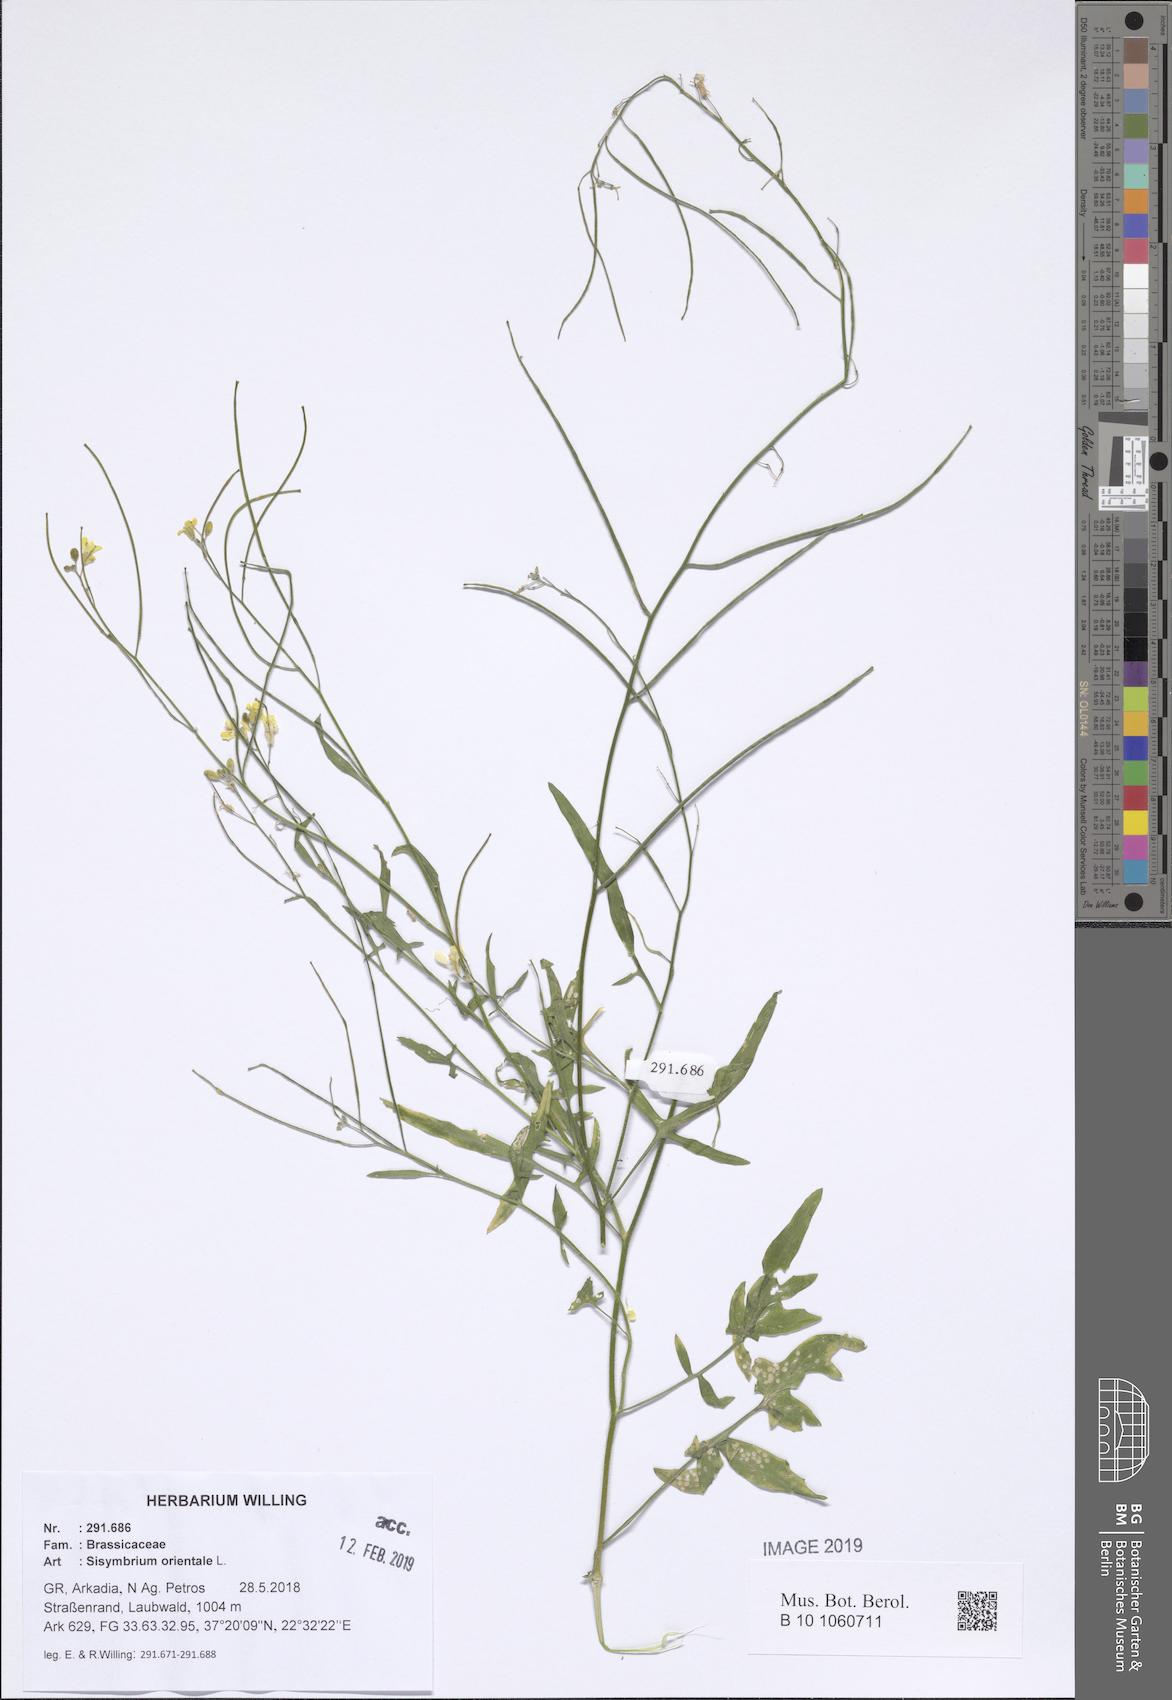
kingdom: Plantae
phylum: Tracheophyta
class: Magnoliopsida
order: Brassicales
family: Brassicaceae
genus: Sisymbrium
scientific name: Sisymbrium orientale
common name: Eastern rocket
